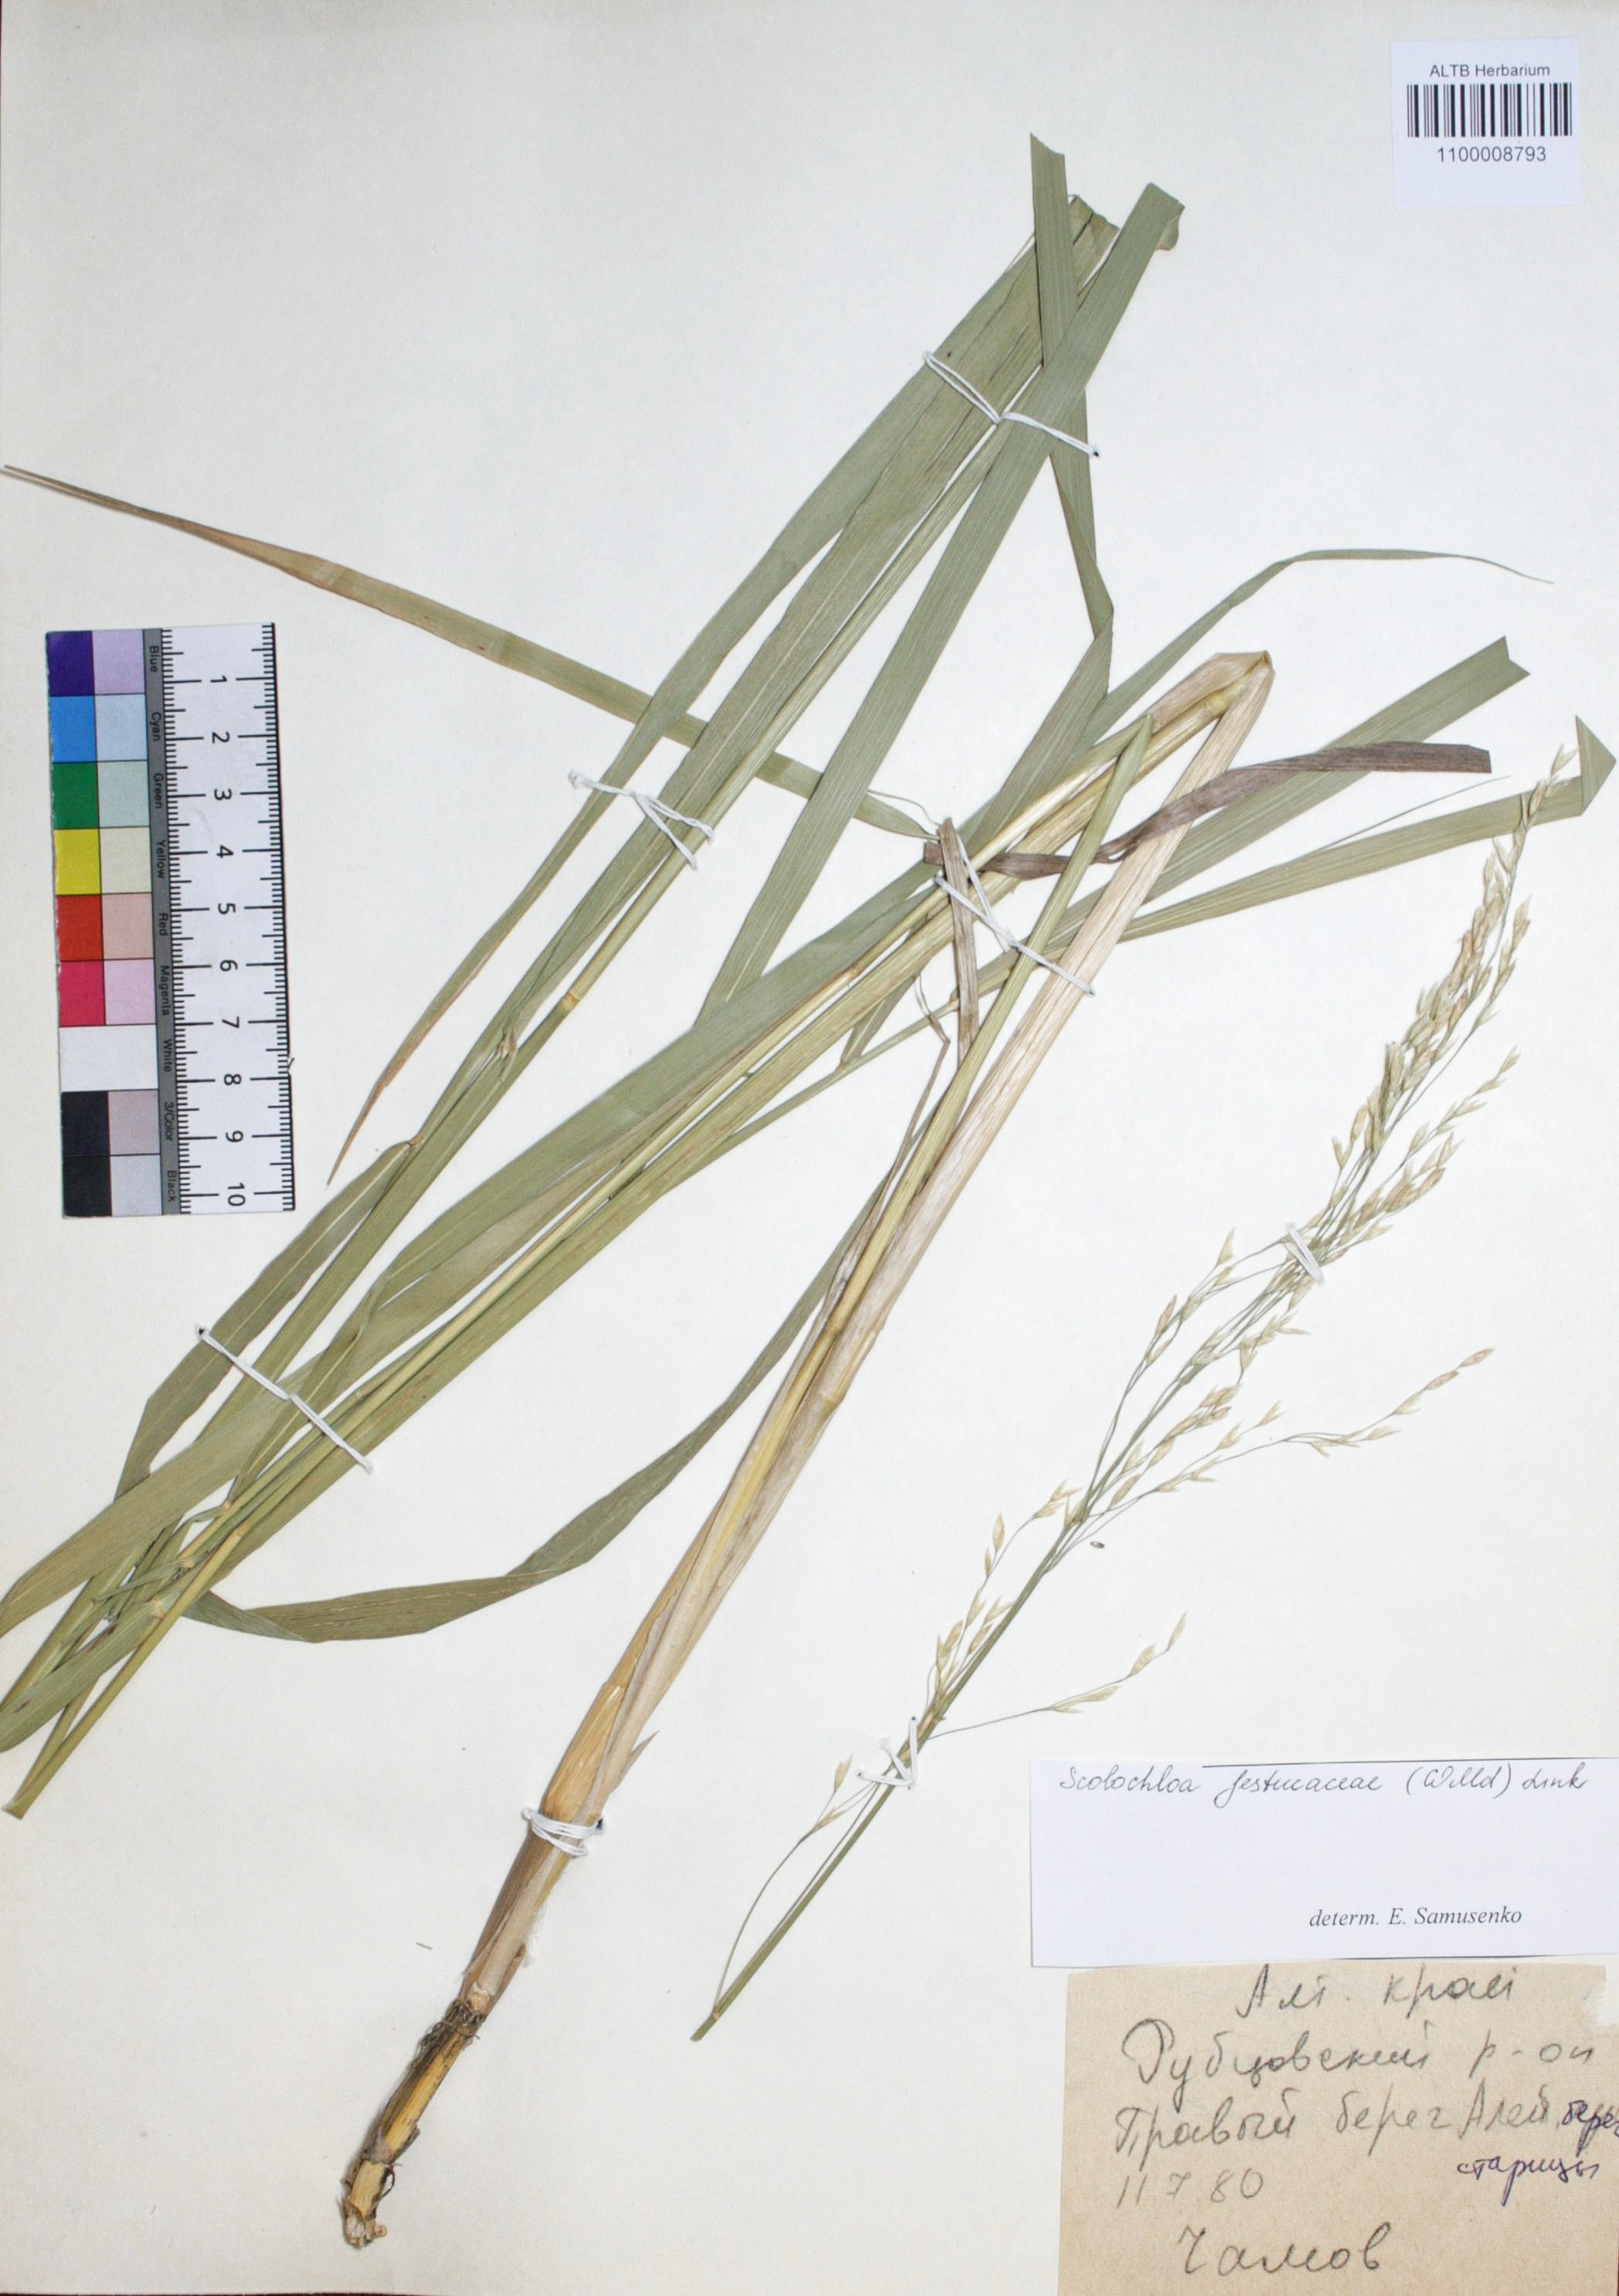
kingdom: Plantae
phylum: Tracheophyta
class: Liliopsida
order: Poales
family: Poaceae
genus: Scolochloa
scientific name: Scolochloa festucacea
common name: Common rivergrass
